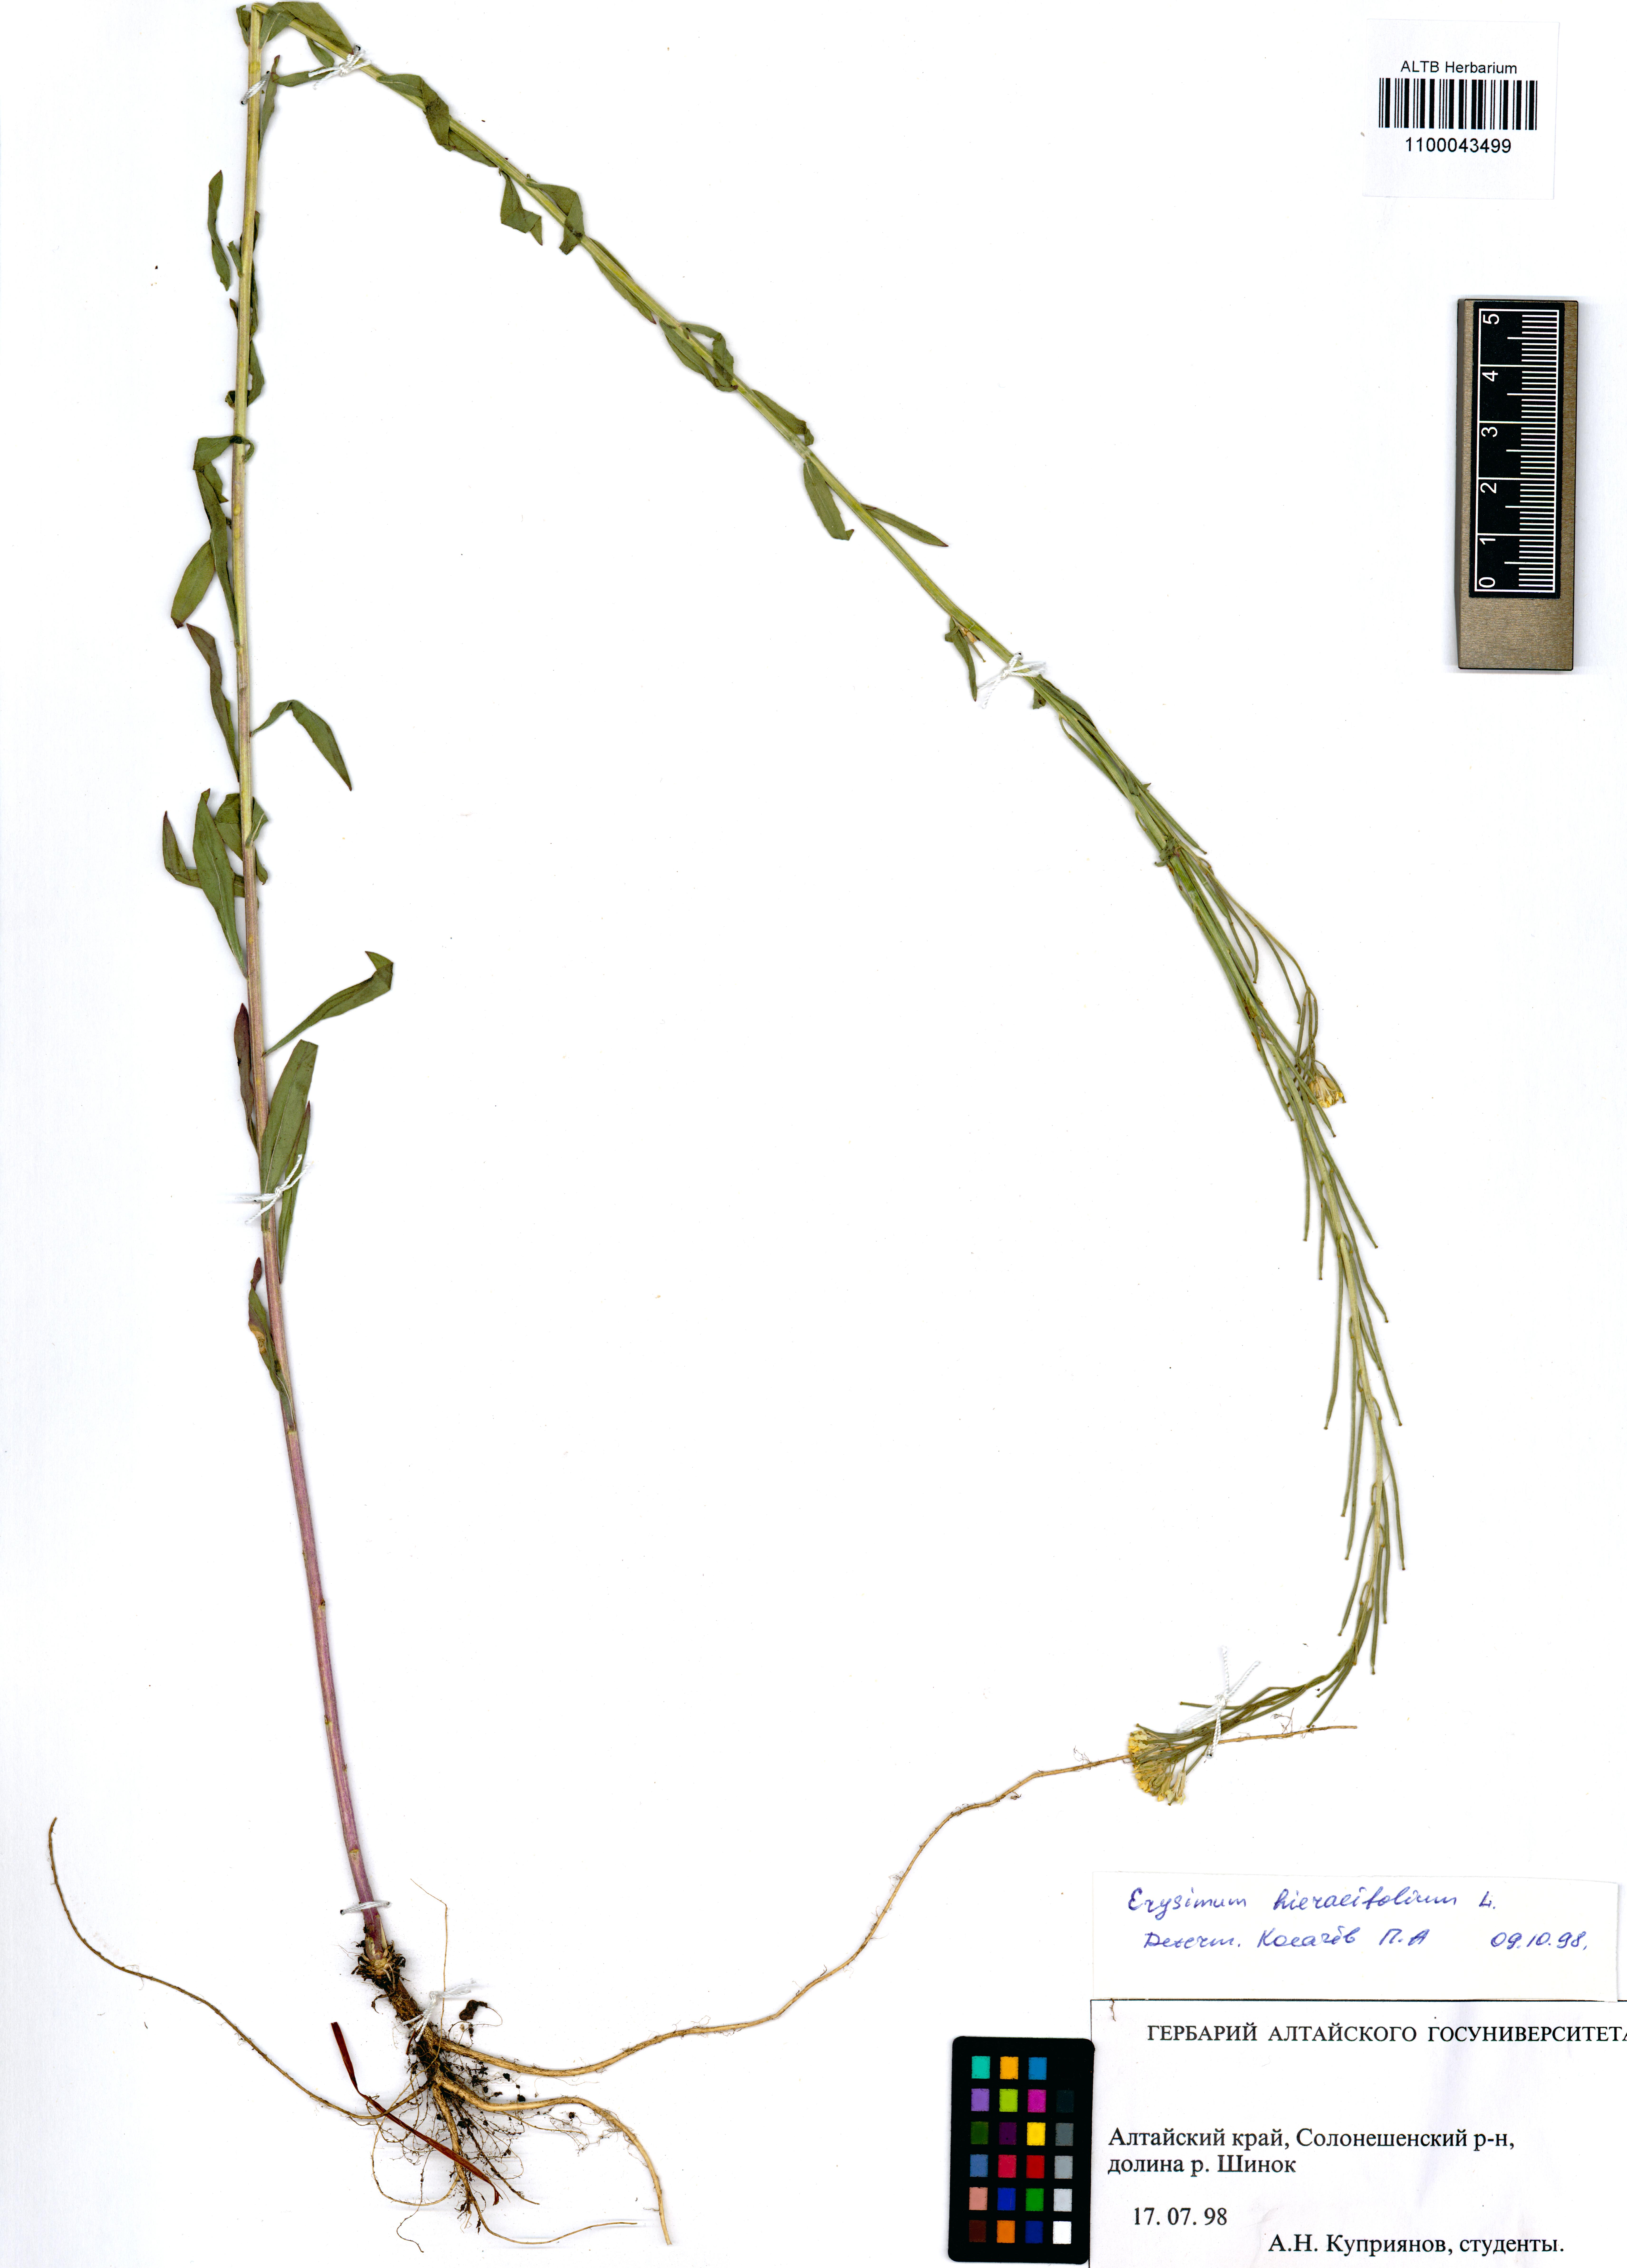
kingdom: Plantae
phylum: Tracheophyta
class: Magnoliopsida
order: Brassicales
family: Brassicaceae
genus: Erysimum
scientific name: Erysimum hieraciifolium
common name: European wallflower
